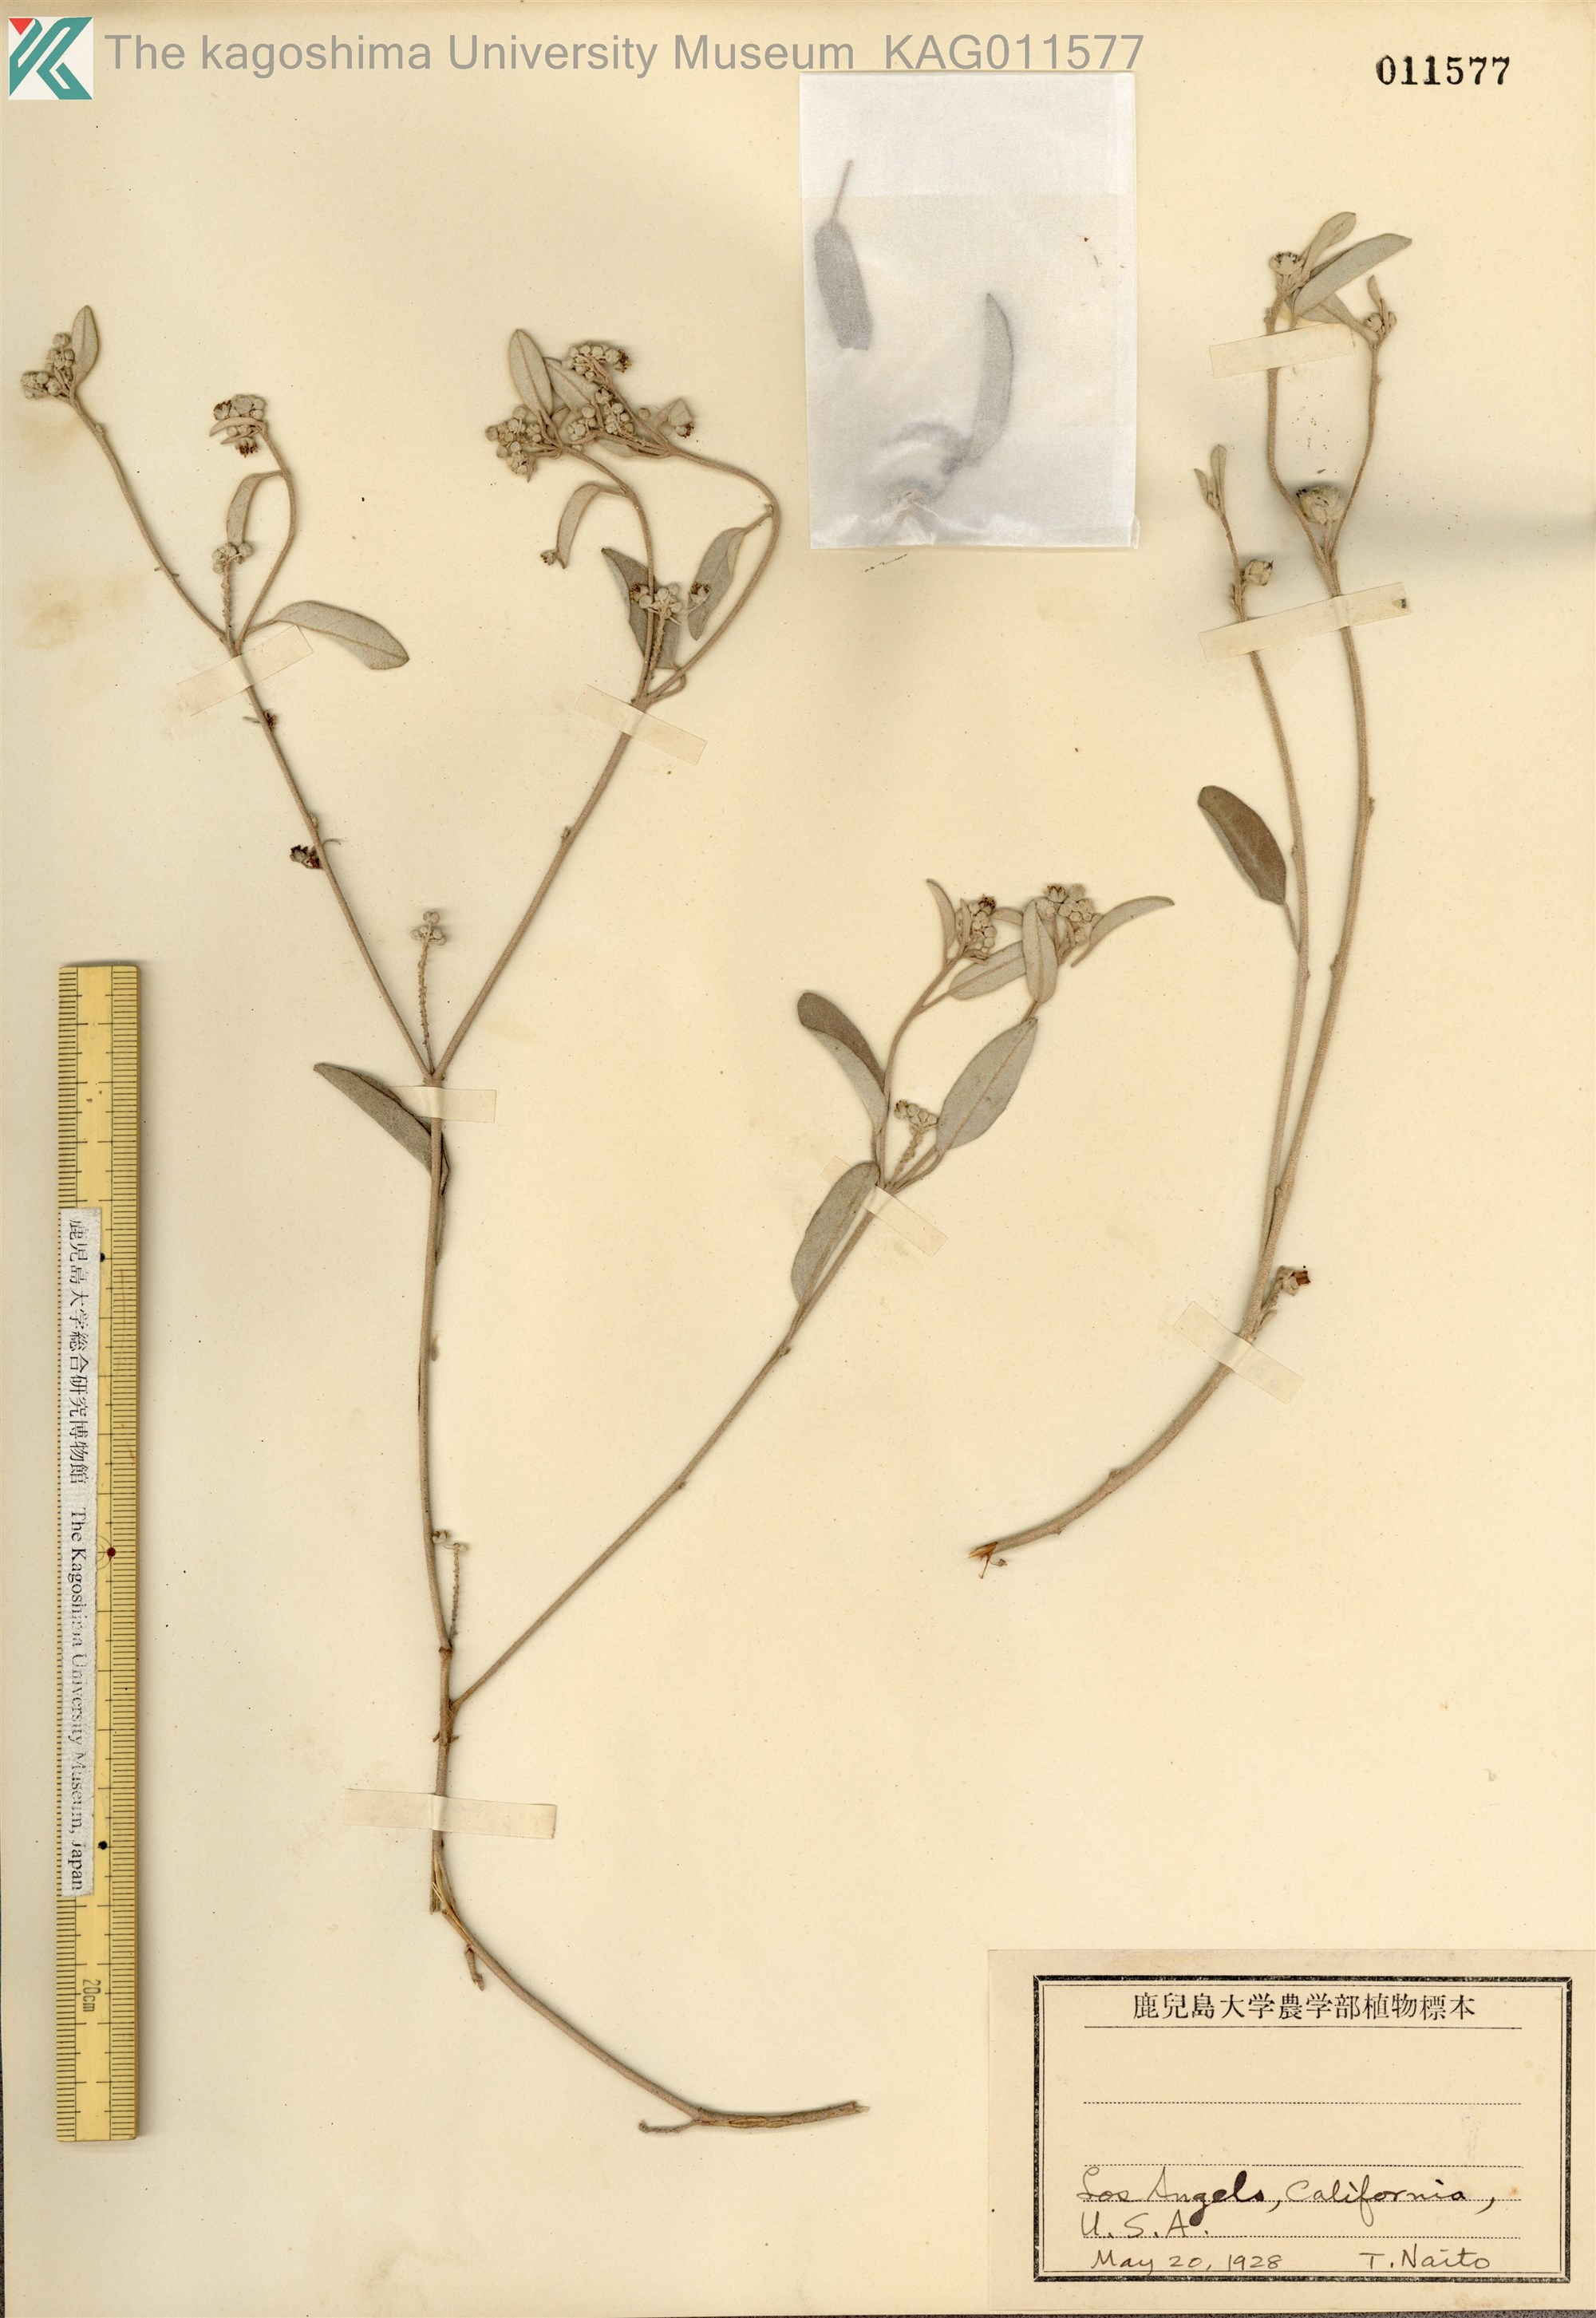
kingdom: Plantae
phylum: Tracheophyta
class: Magnoliopsida
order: Malpighiales
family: Euphorbiaceae
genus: Croton
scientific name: Croton californicus
